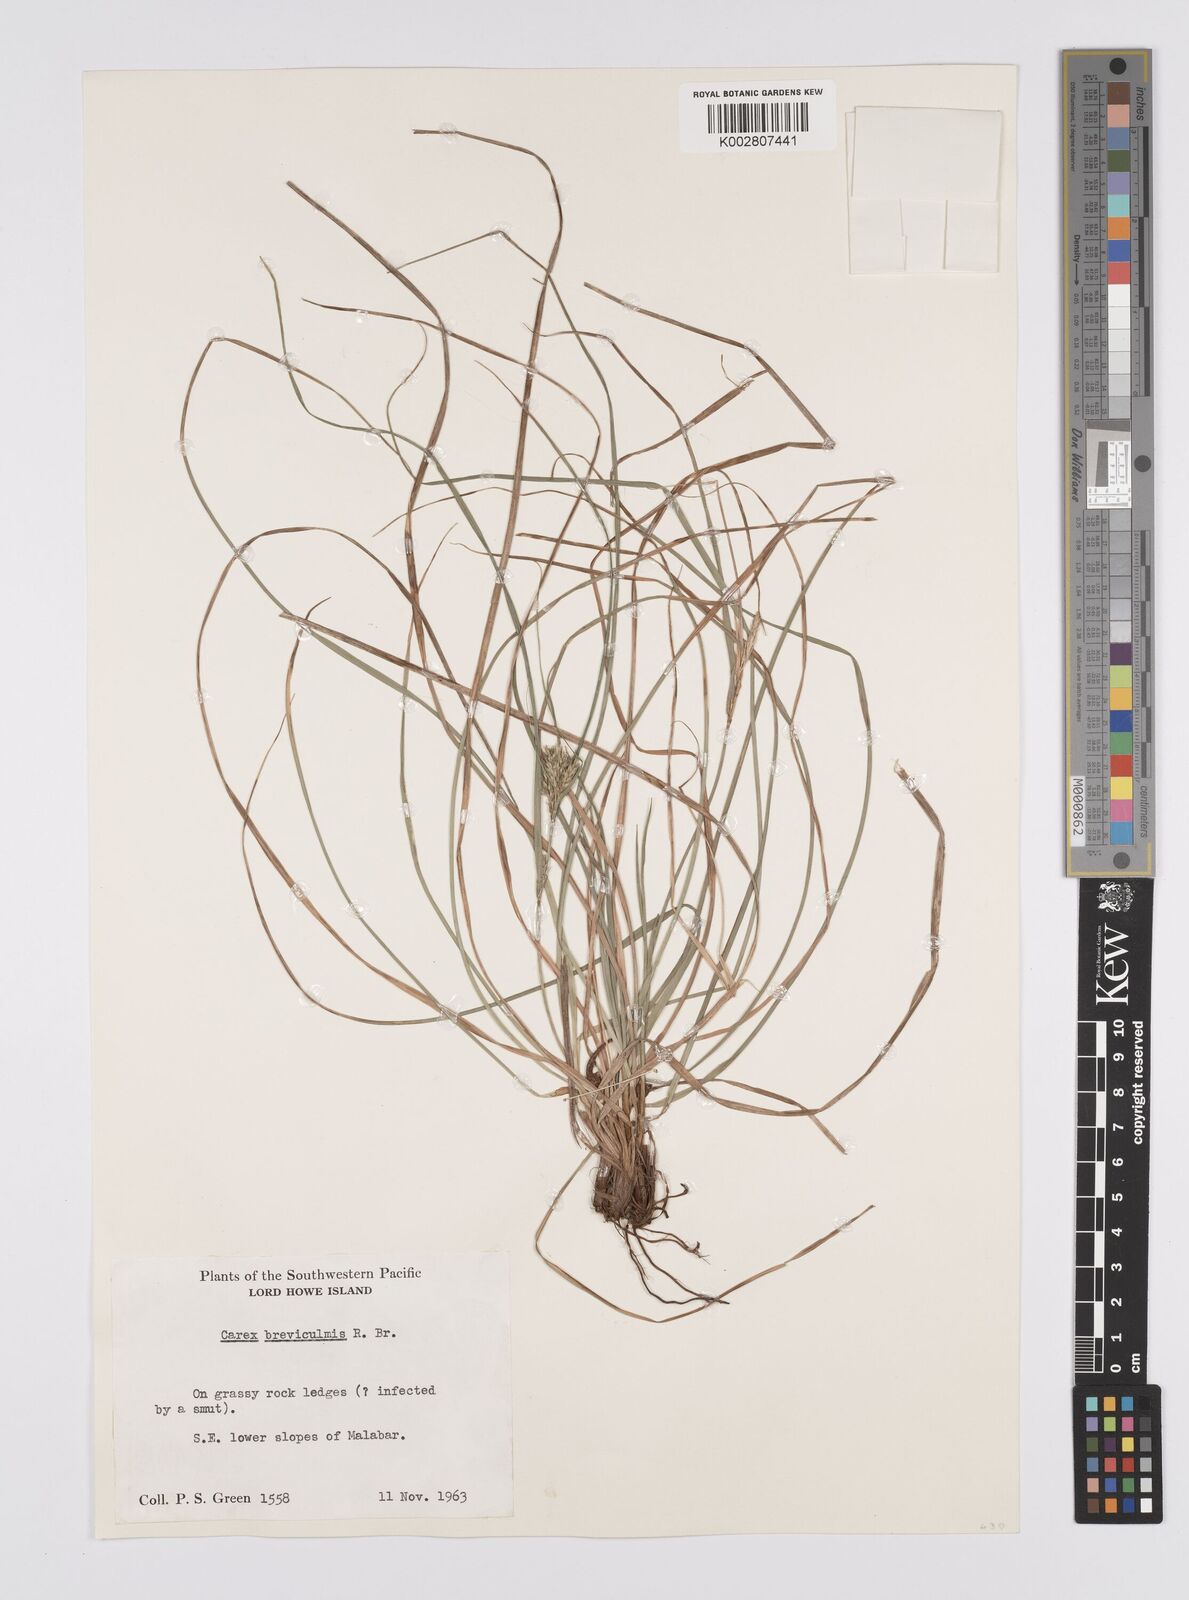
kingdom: Plantae
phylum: Tracheophyta
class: Liliopsida
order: Poales
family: Cyperaceae
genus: Carex
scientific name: Carex breviculmis
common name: Asian shortstem sedge
